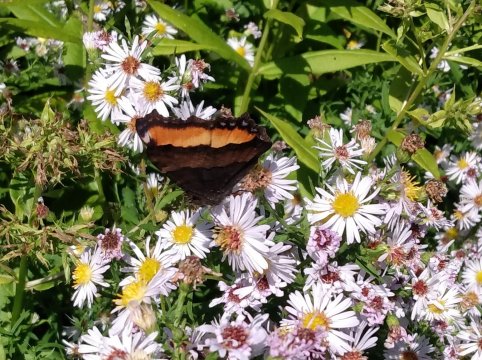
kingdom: Animalia
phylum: Arthropoda
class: Insecta
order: Lepidoptera
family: Nymphalidae
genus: Aglais
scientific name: Aglais milberti
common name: Milbert's Tortoiseshell
